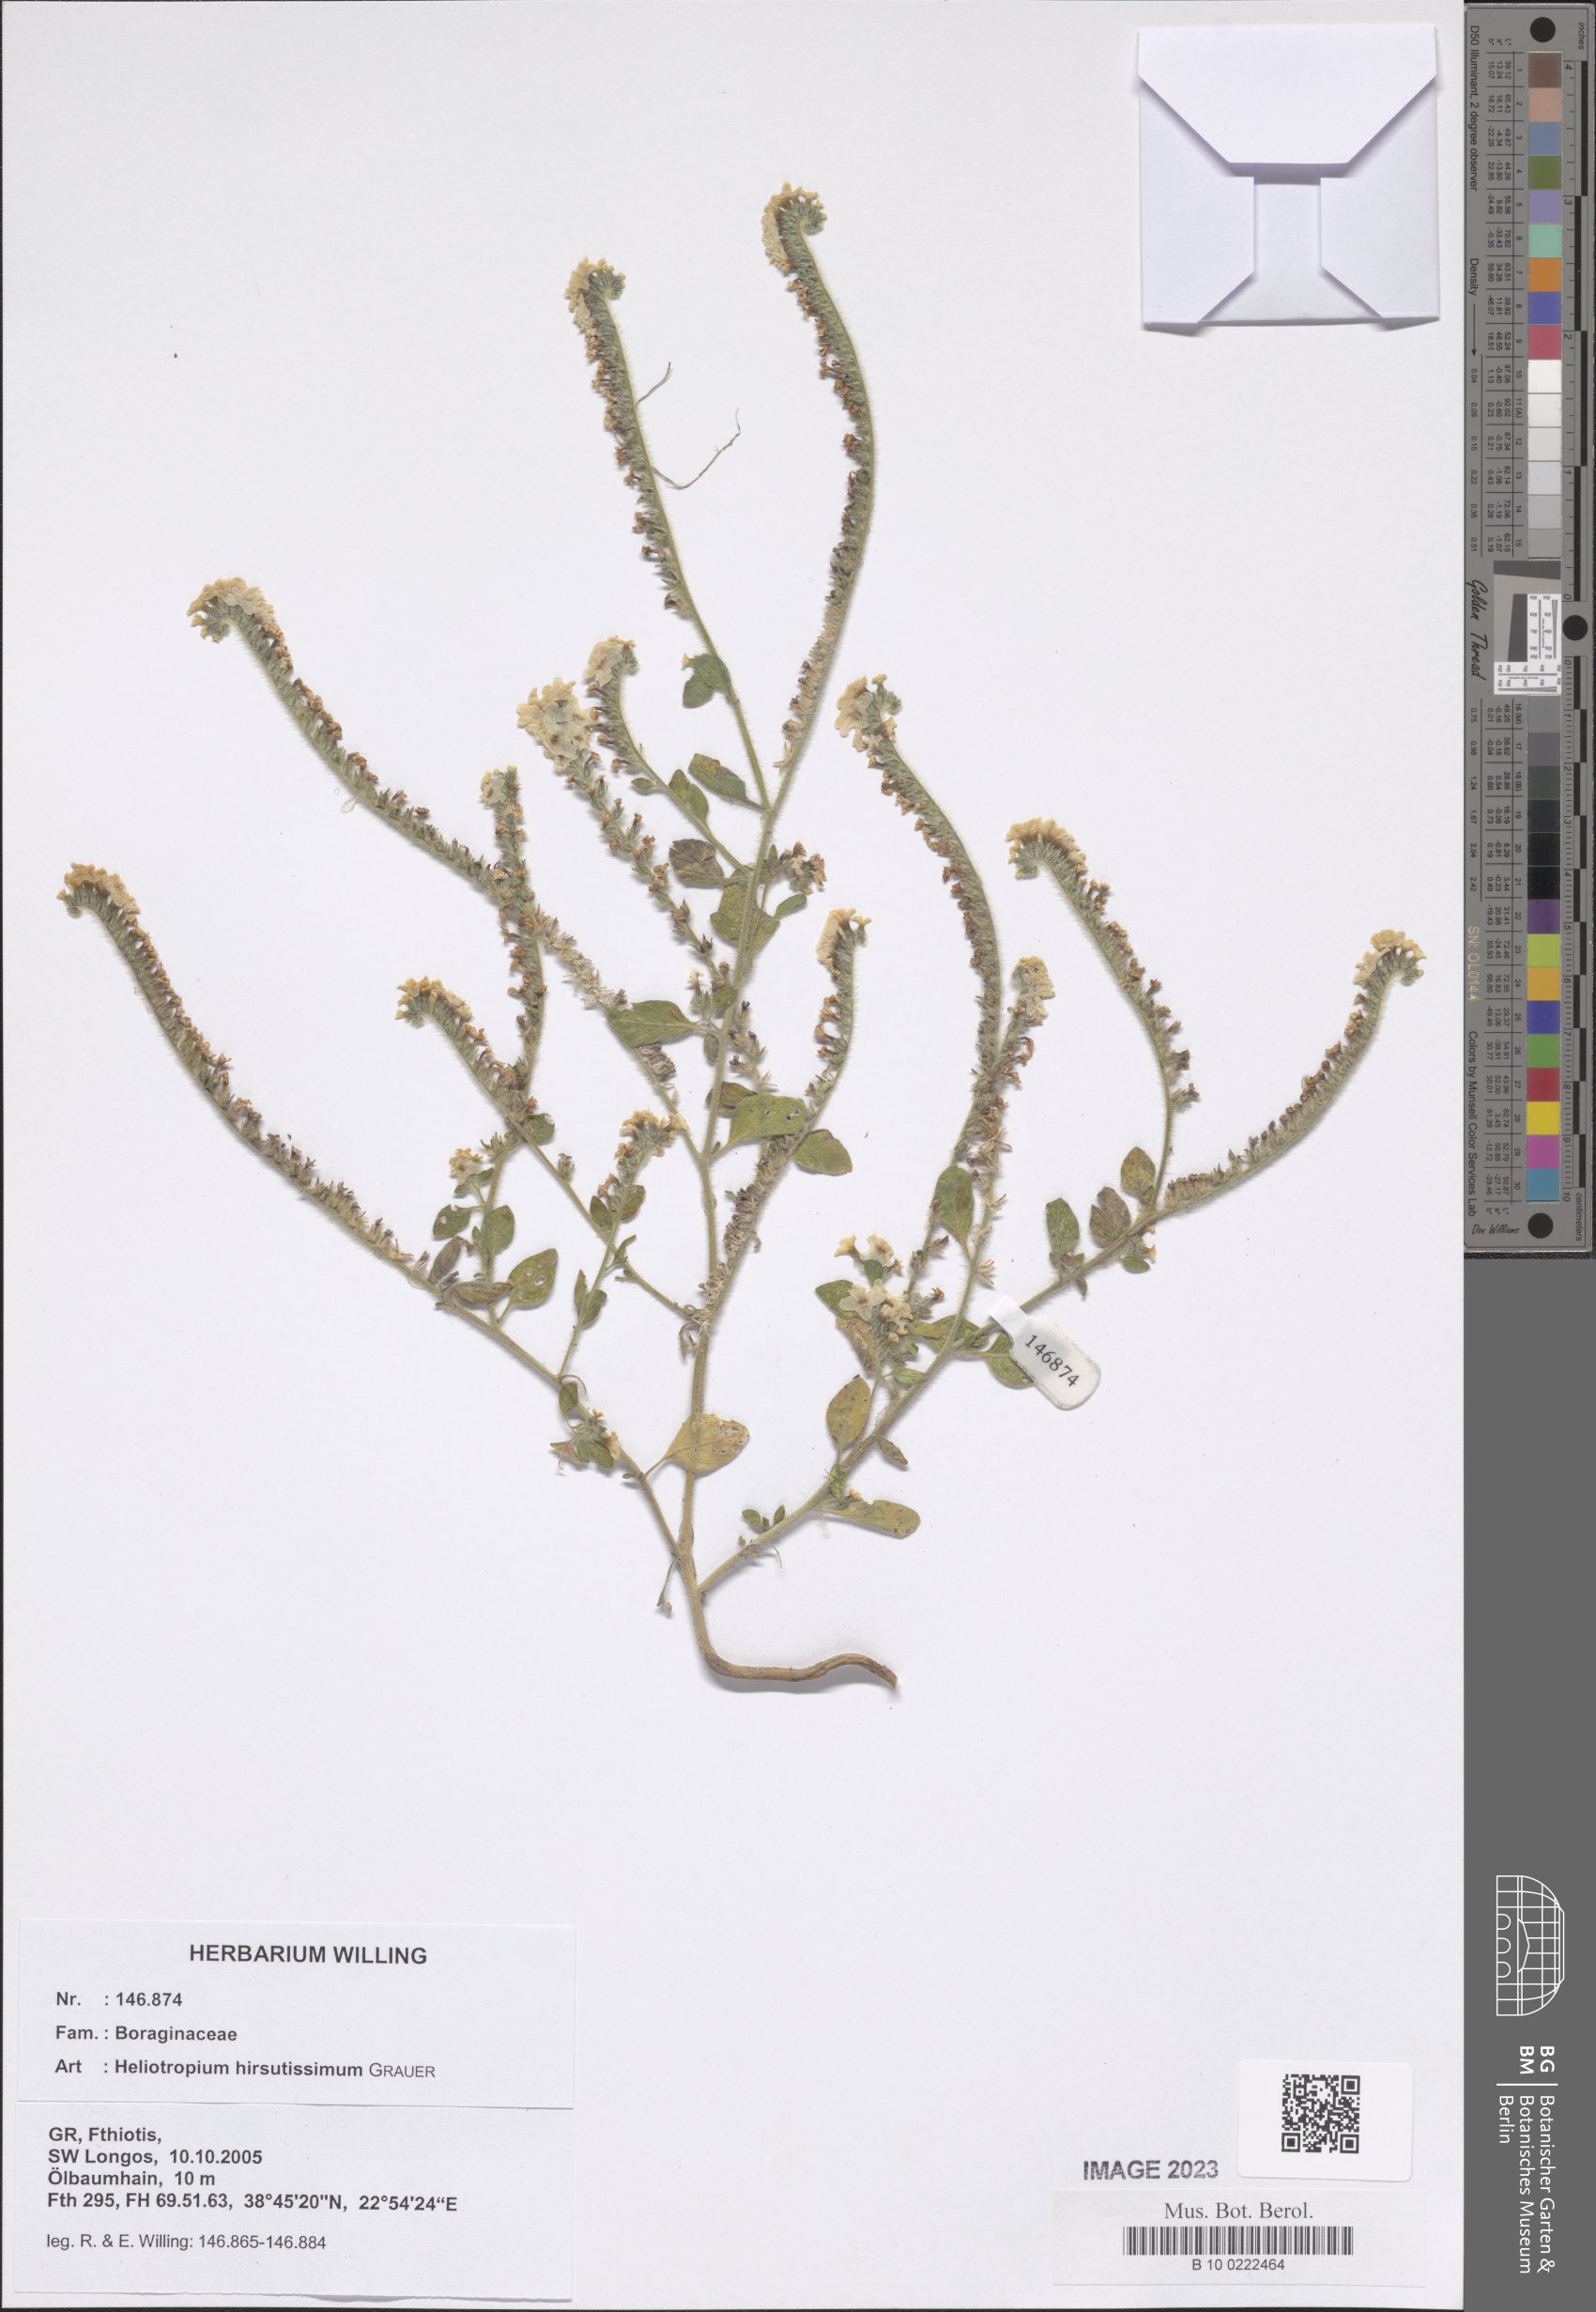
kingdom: Plantae
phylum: Tracheophyta
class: Magnoliopsida
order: Boraginales
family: Heliotropiaceae
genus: Heliotropium
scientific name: Heliotropium hirsutissimum
